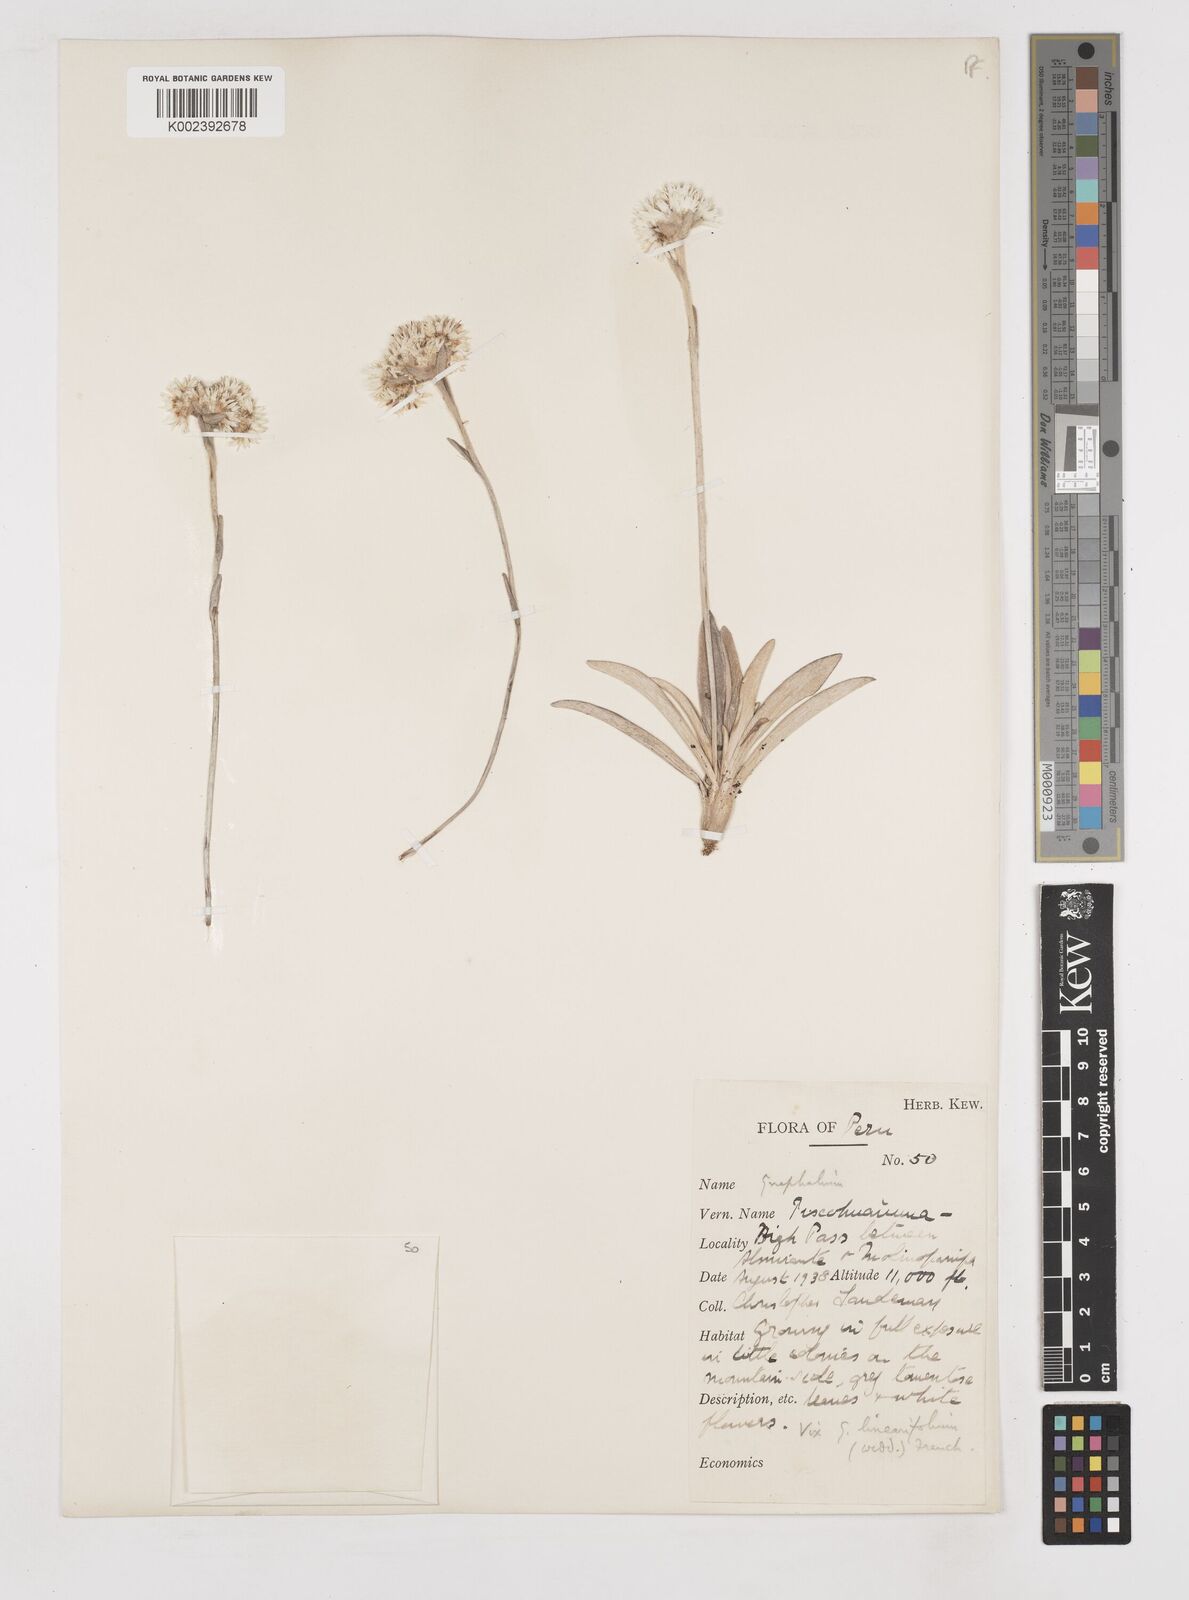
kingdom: Plantae
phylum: Tracheophyta
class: Magnoliopsida
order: Asterales
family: Asteraceae
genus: Gnaphalium
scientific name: Gnaphalium
